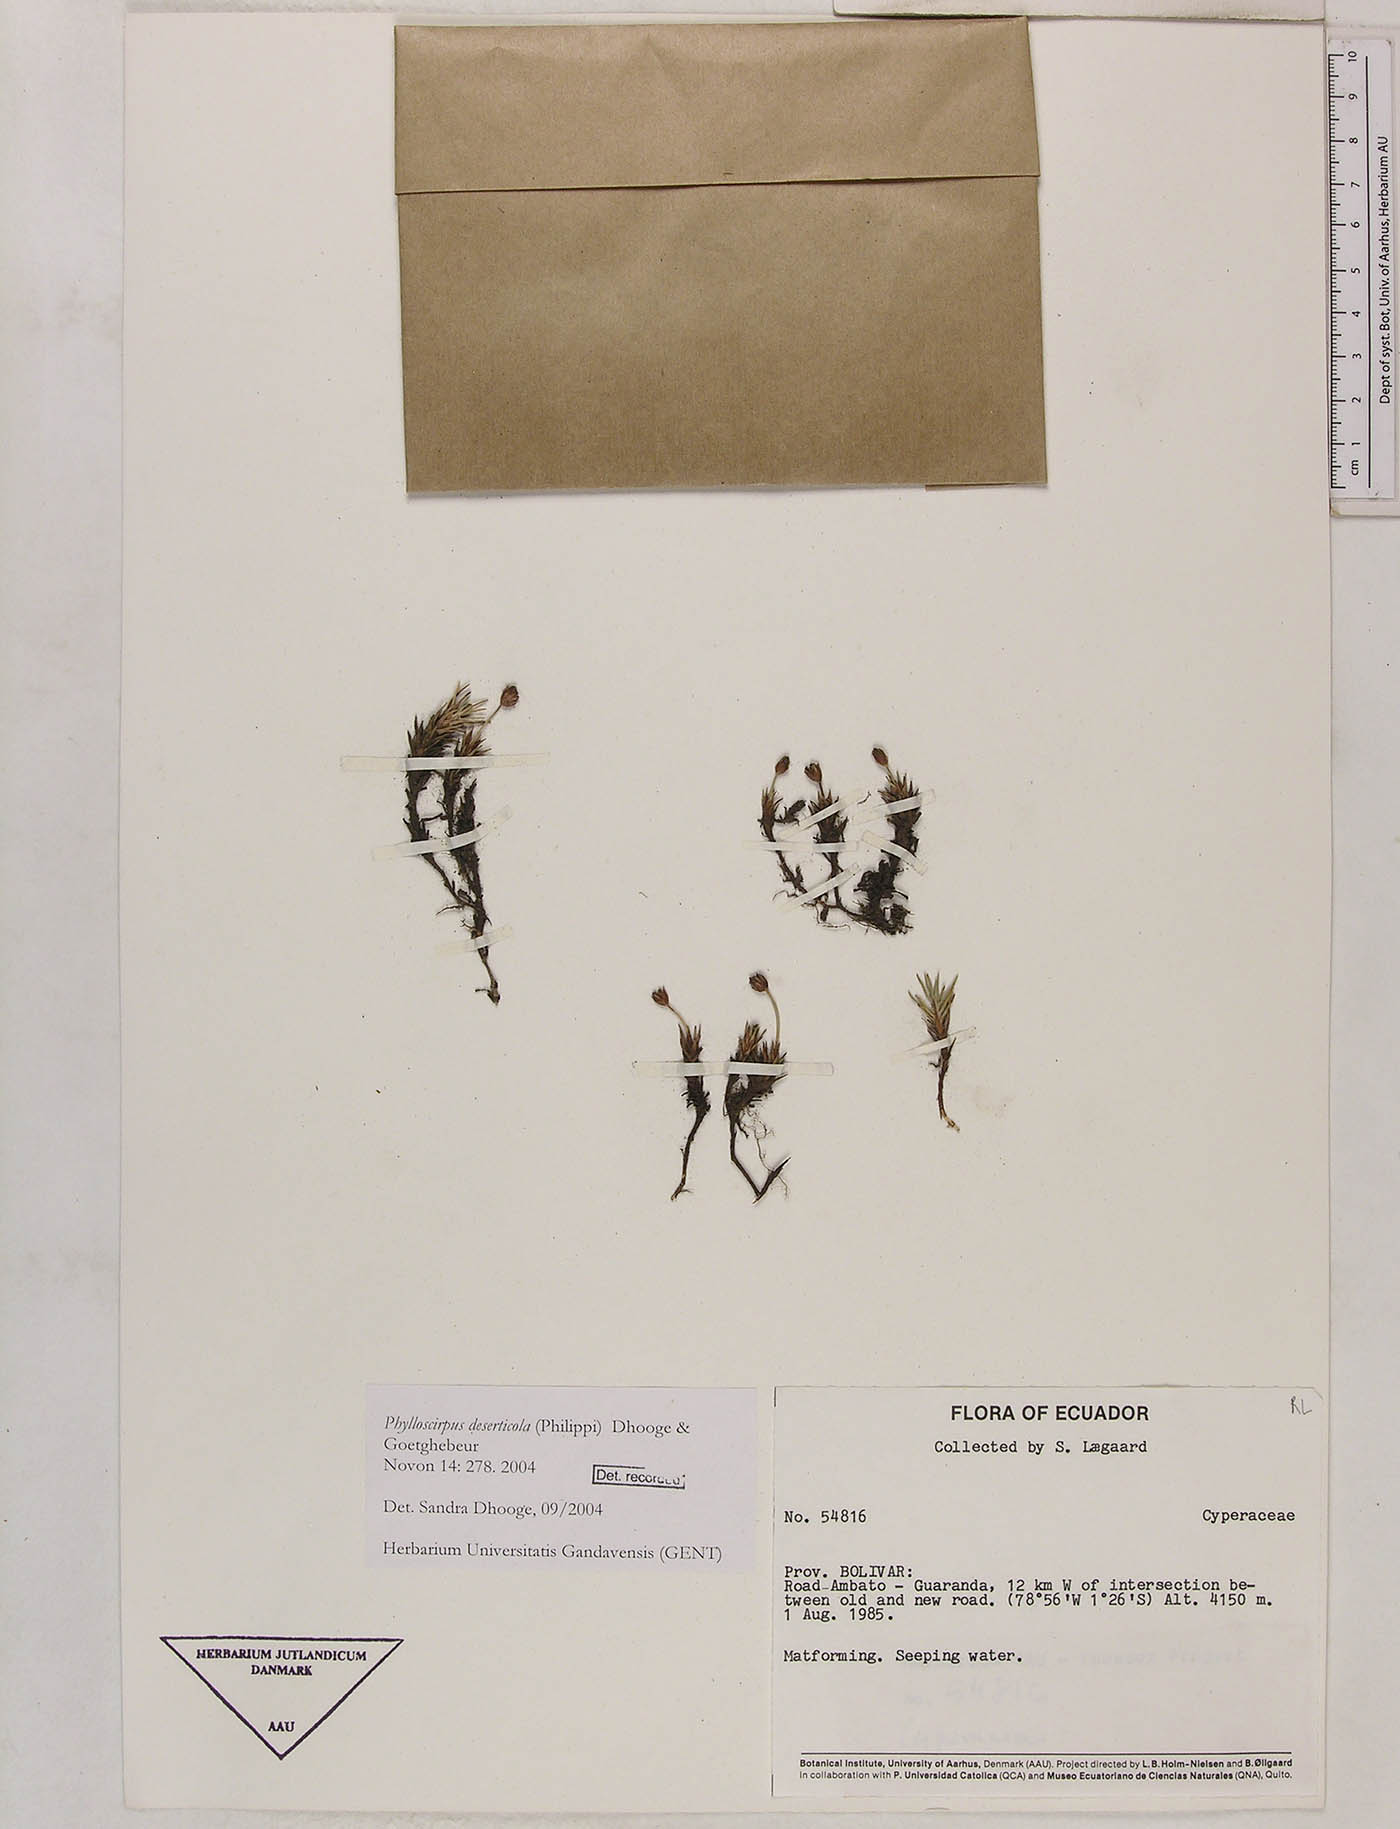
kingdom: Plantae
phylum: Tracheophyta
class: Liliopsida
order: Poales
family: Cyperaceae
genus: Phylloscirpus
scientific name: Phylloscirpus deserticola
